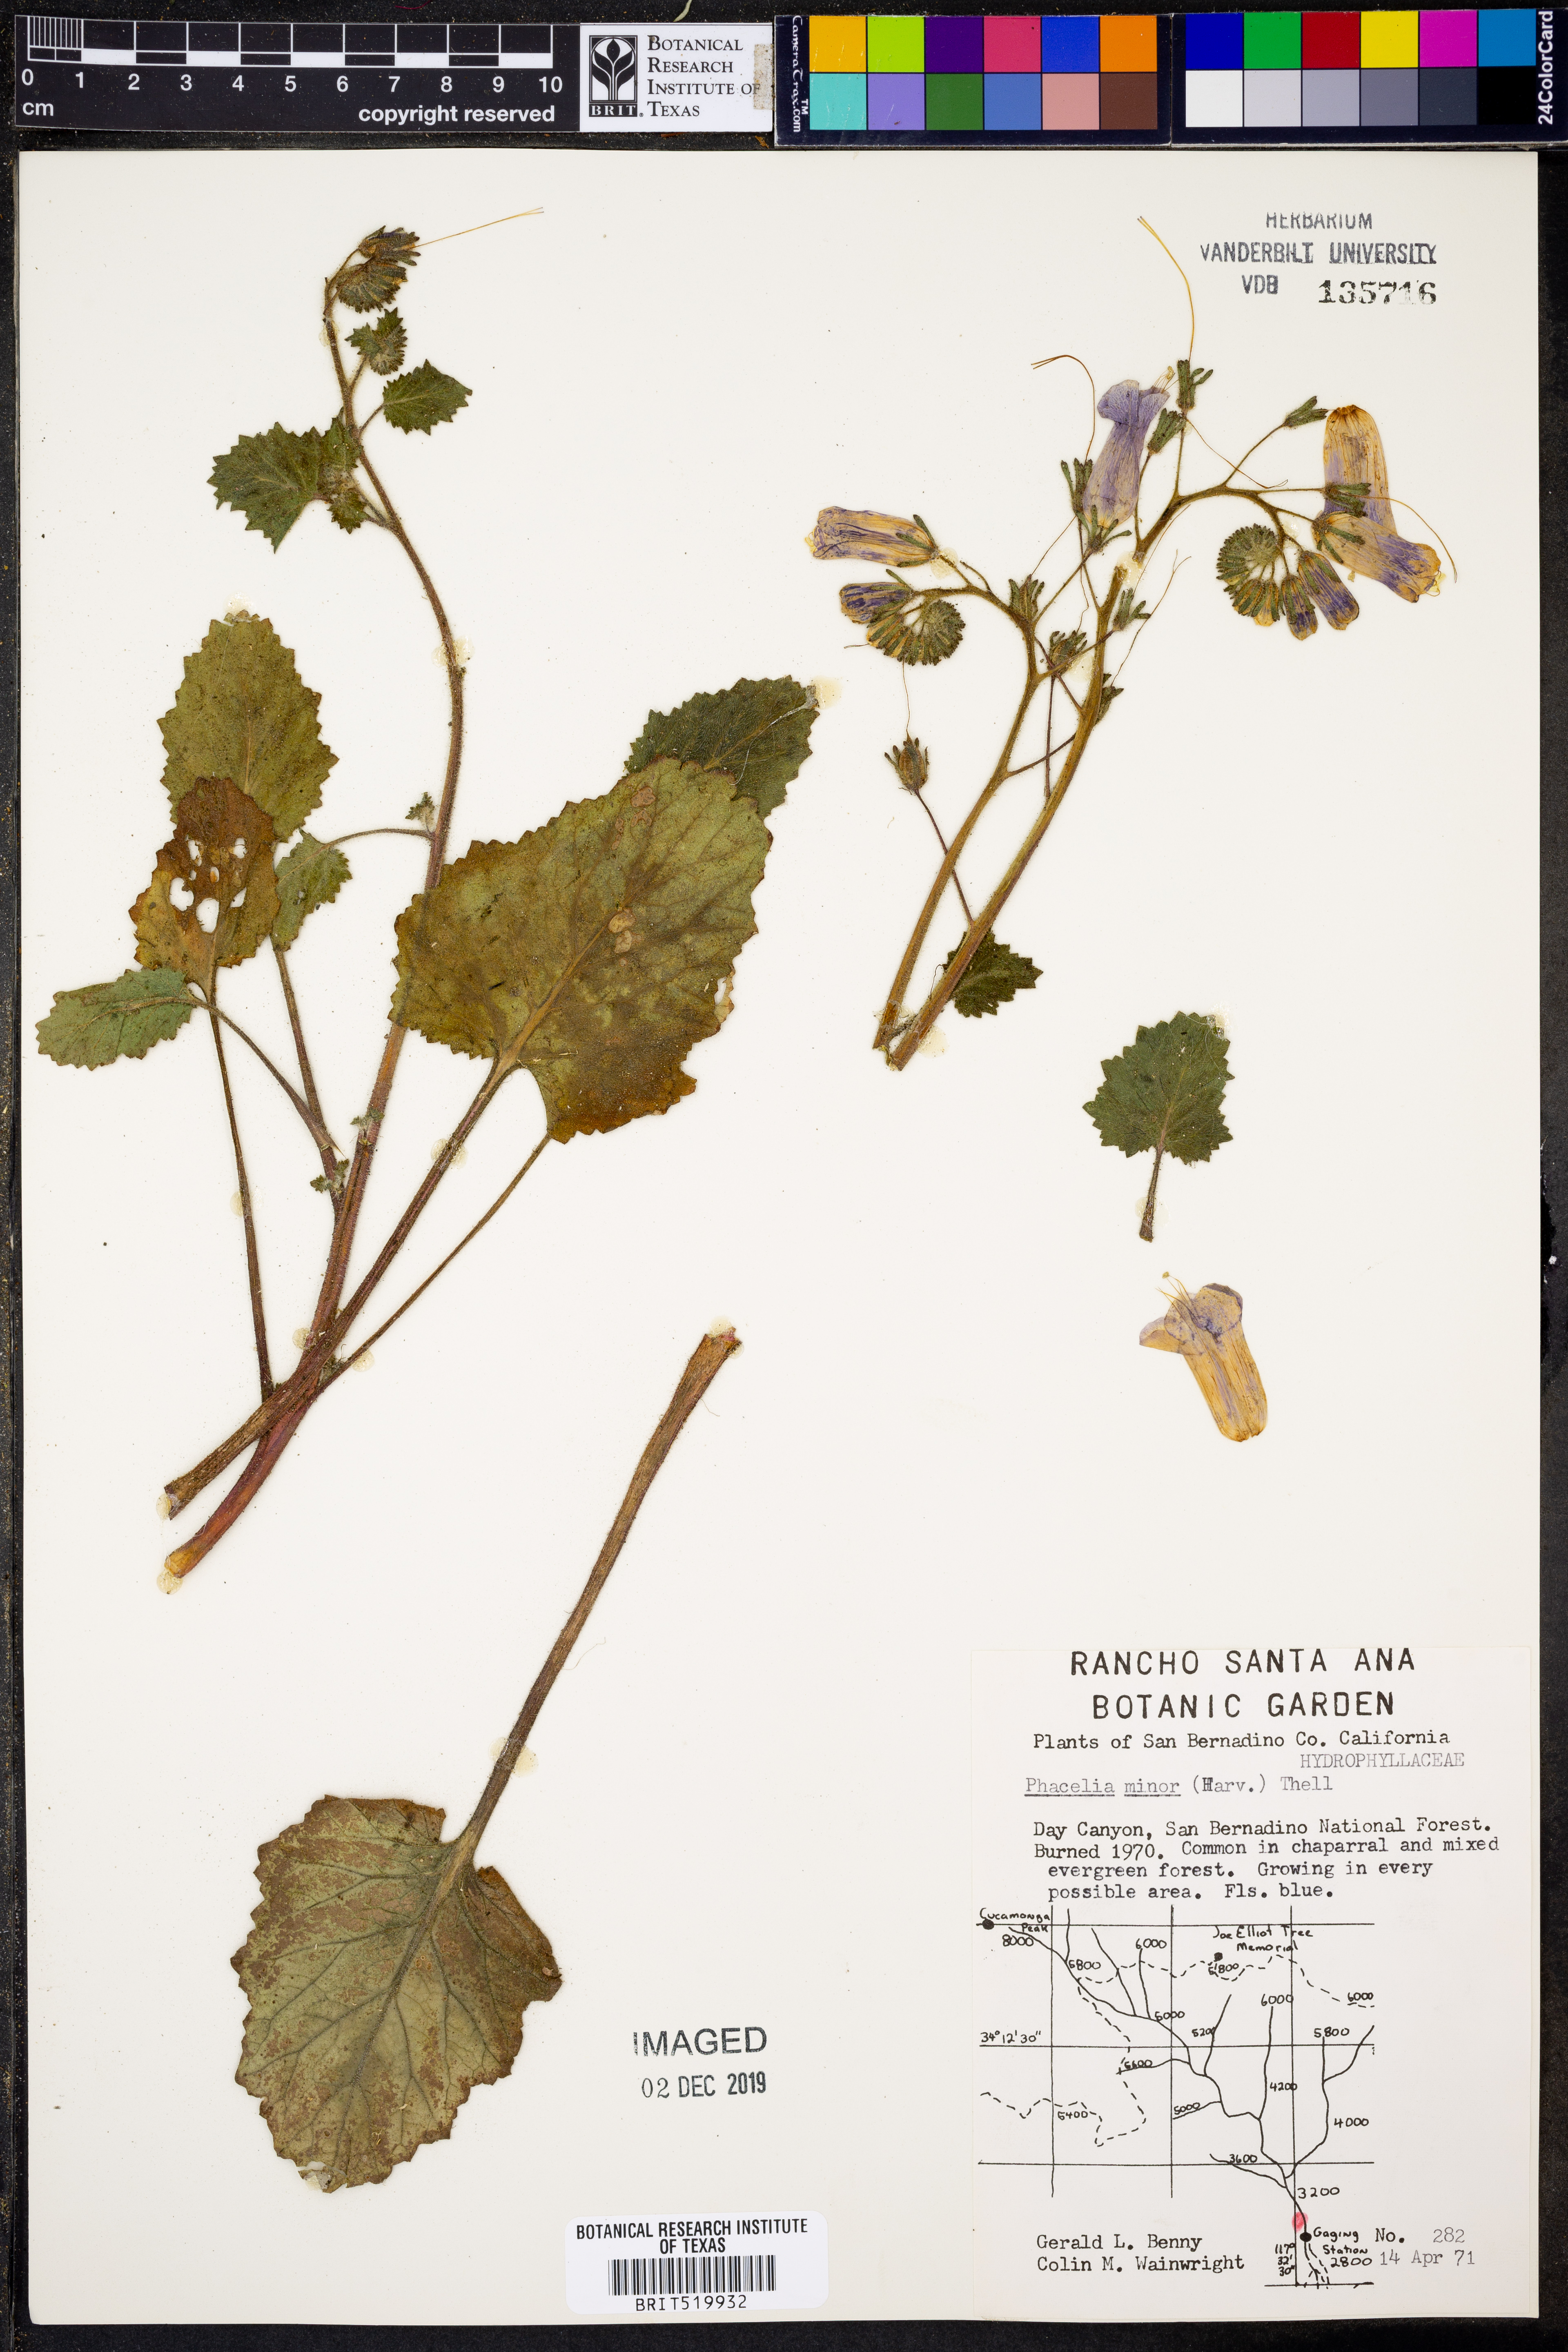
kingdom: Plantae
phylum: Tracheophyta
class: Magnoliopsida
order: Boraginales
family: Hydrophyllaceae
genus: Phacelia
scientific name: Phacelia minor
